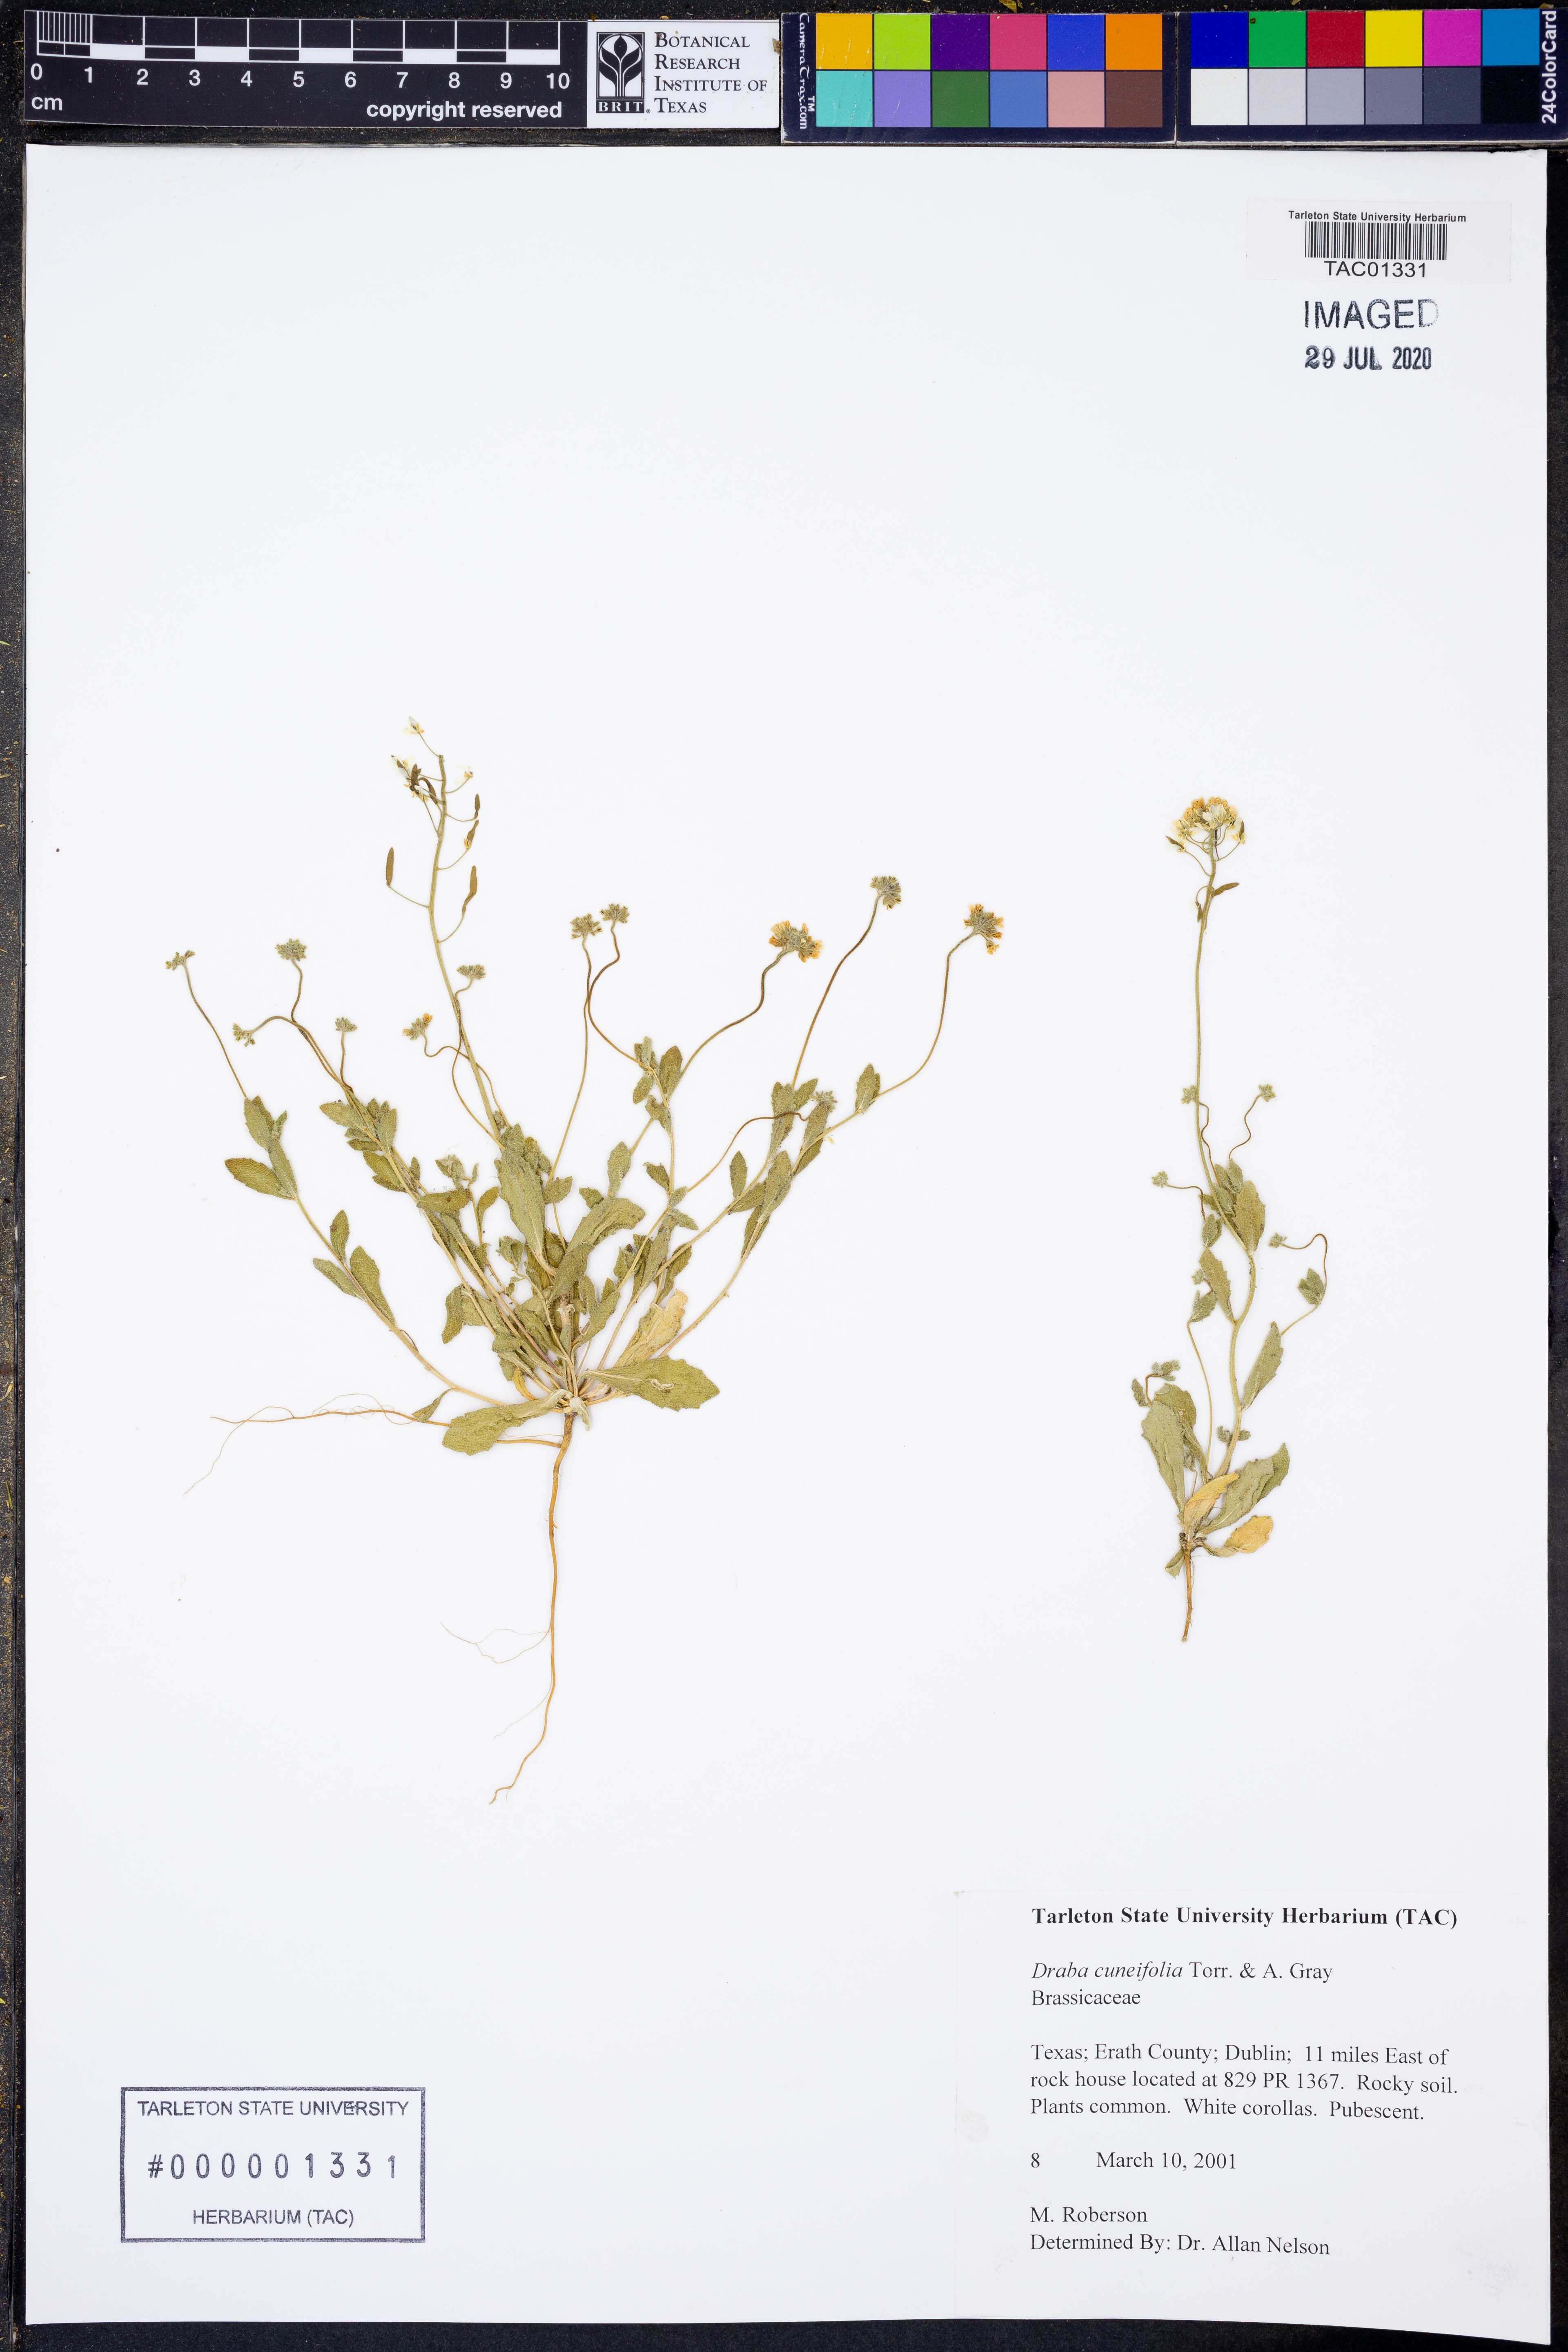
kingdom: Plantae
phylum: Tracheophyta
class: Magnoliopsida
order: Brassicales
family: Brassicaceae
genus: Tomostima
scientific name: Tomostima cuneifolia
